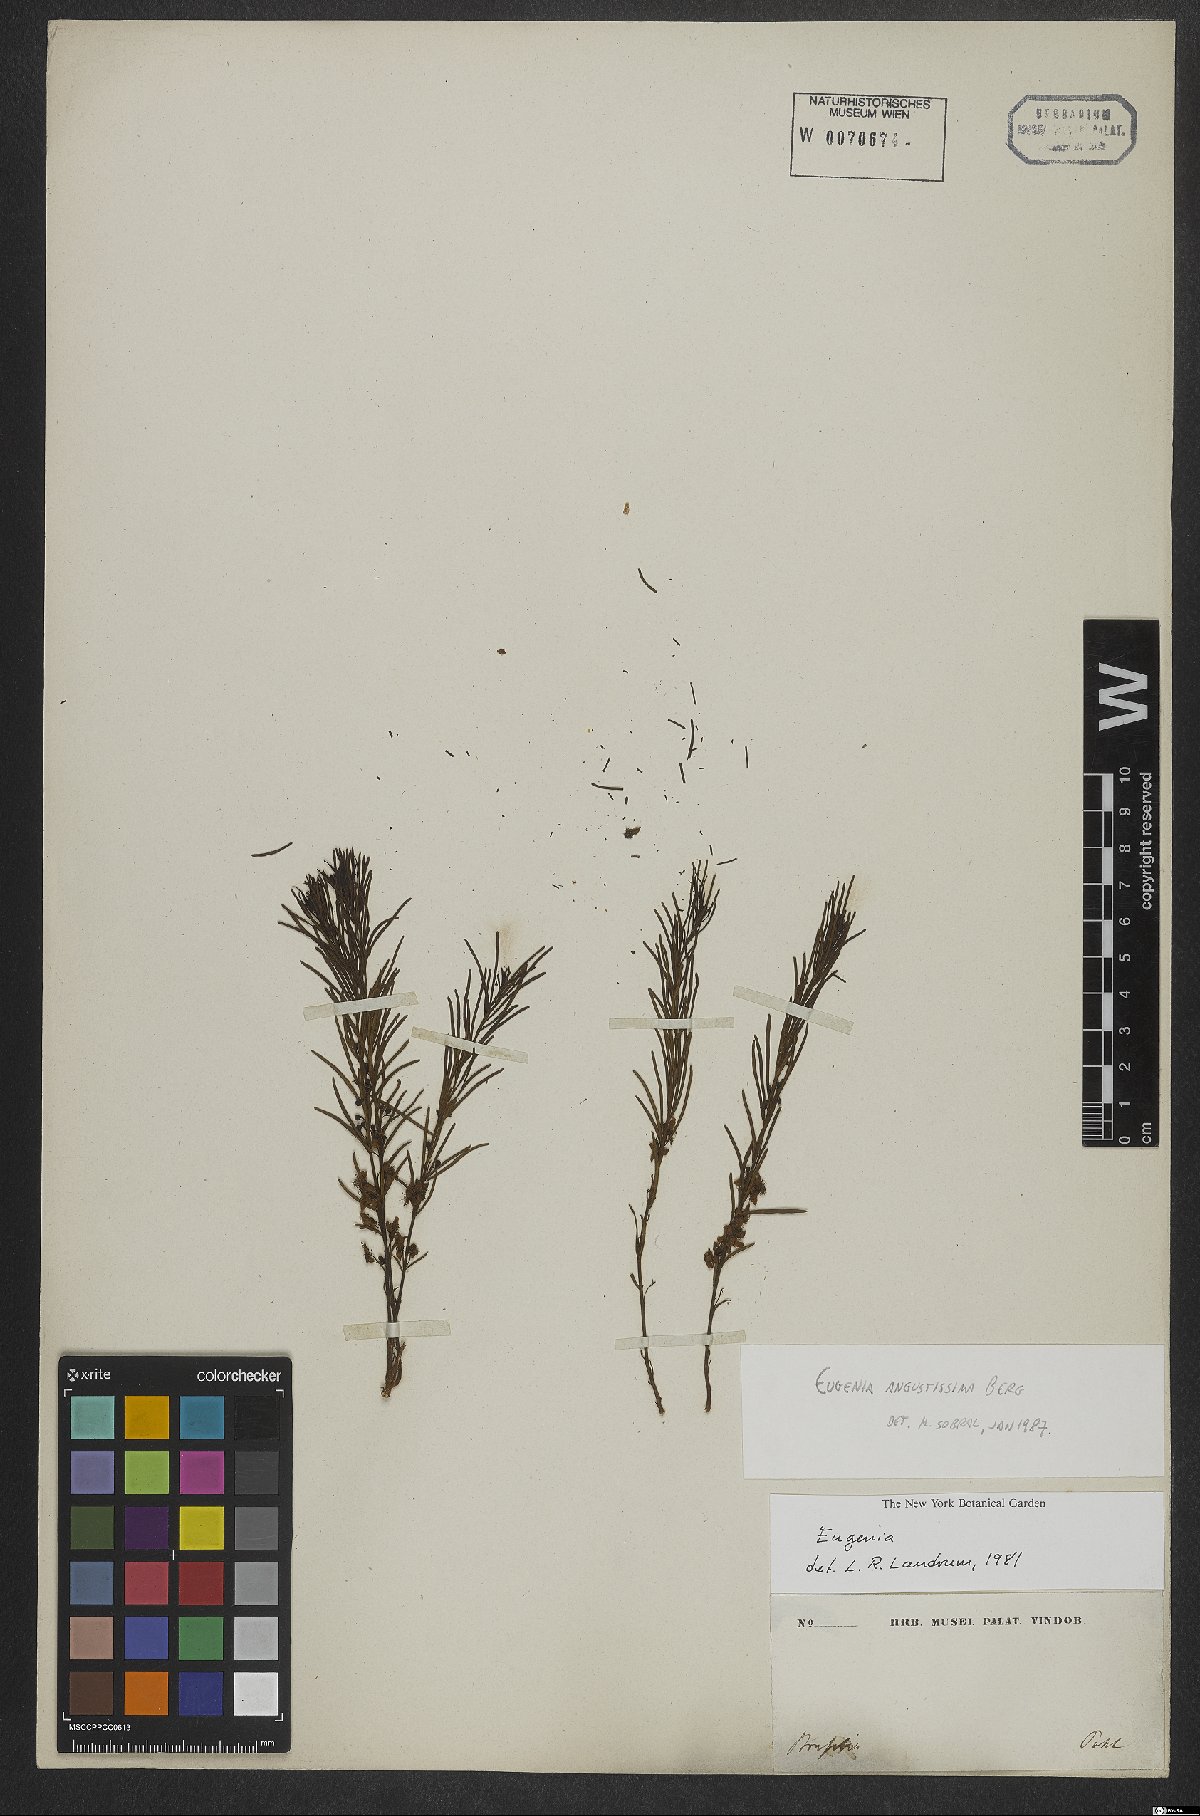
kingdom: Plantae
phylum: Tracheophyta
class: Magnoliopsida
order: Myrtales
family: Myrtaceae
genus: Eugenia
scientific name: Eugenia angustissima
